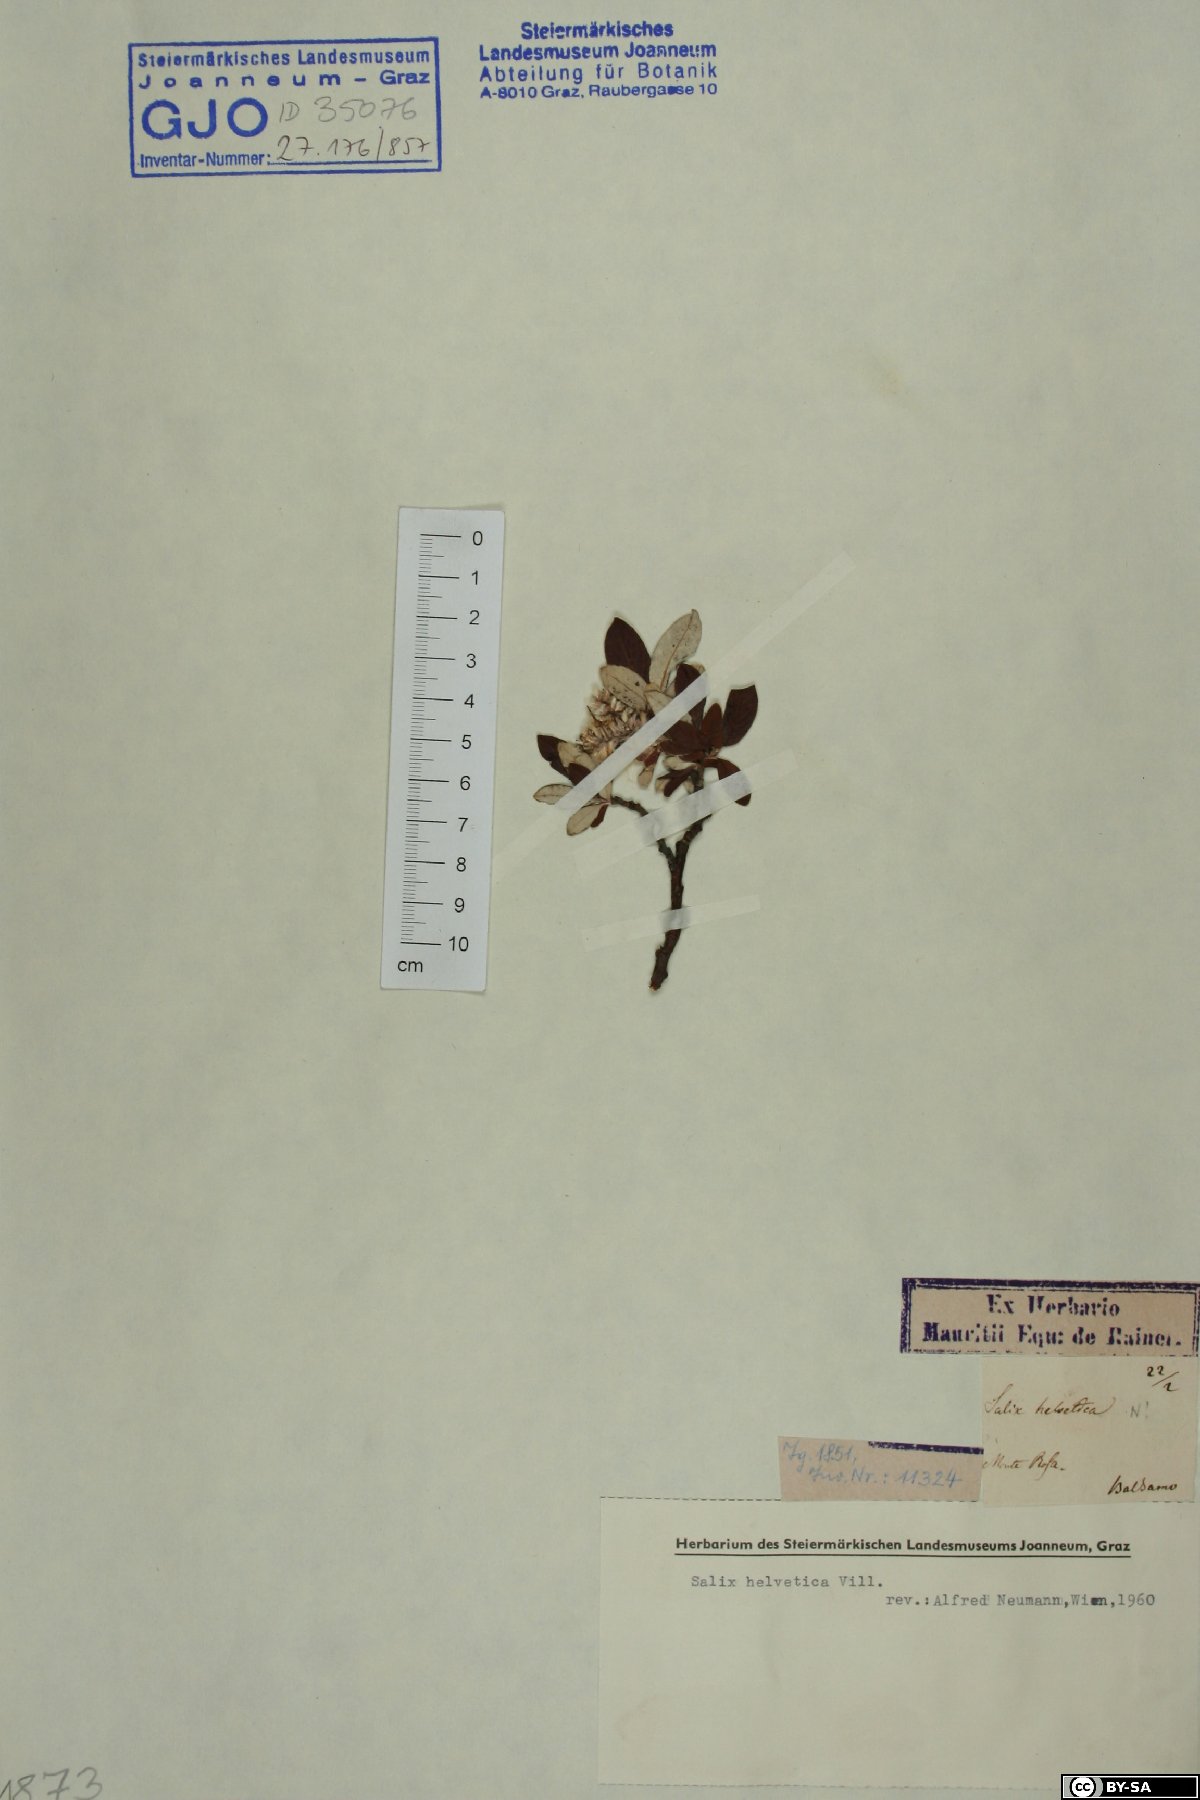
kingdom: Plantae
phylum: Tracheophyta
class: Magnoliopsida
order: Malpighiales
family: Salicaceae
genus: Salix
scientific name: Salix helvetica
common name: Swiss willow
